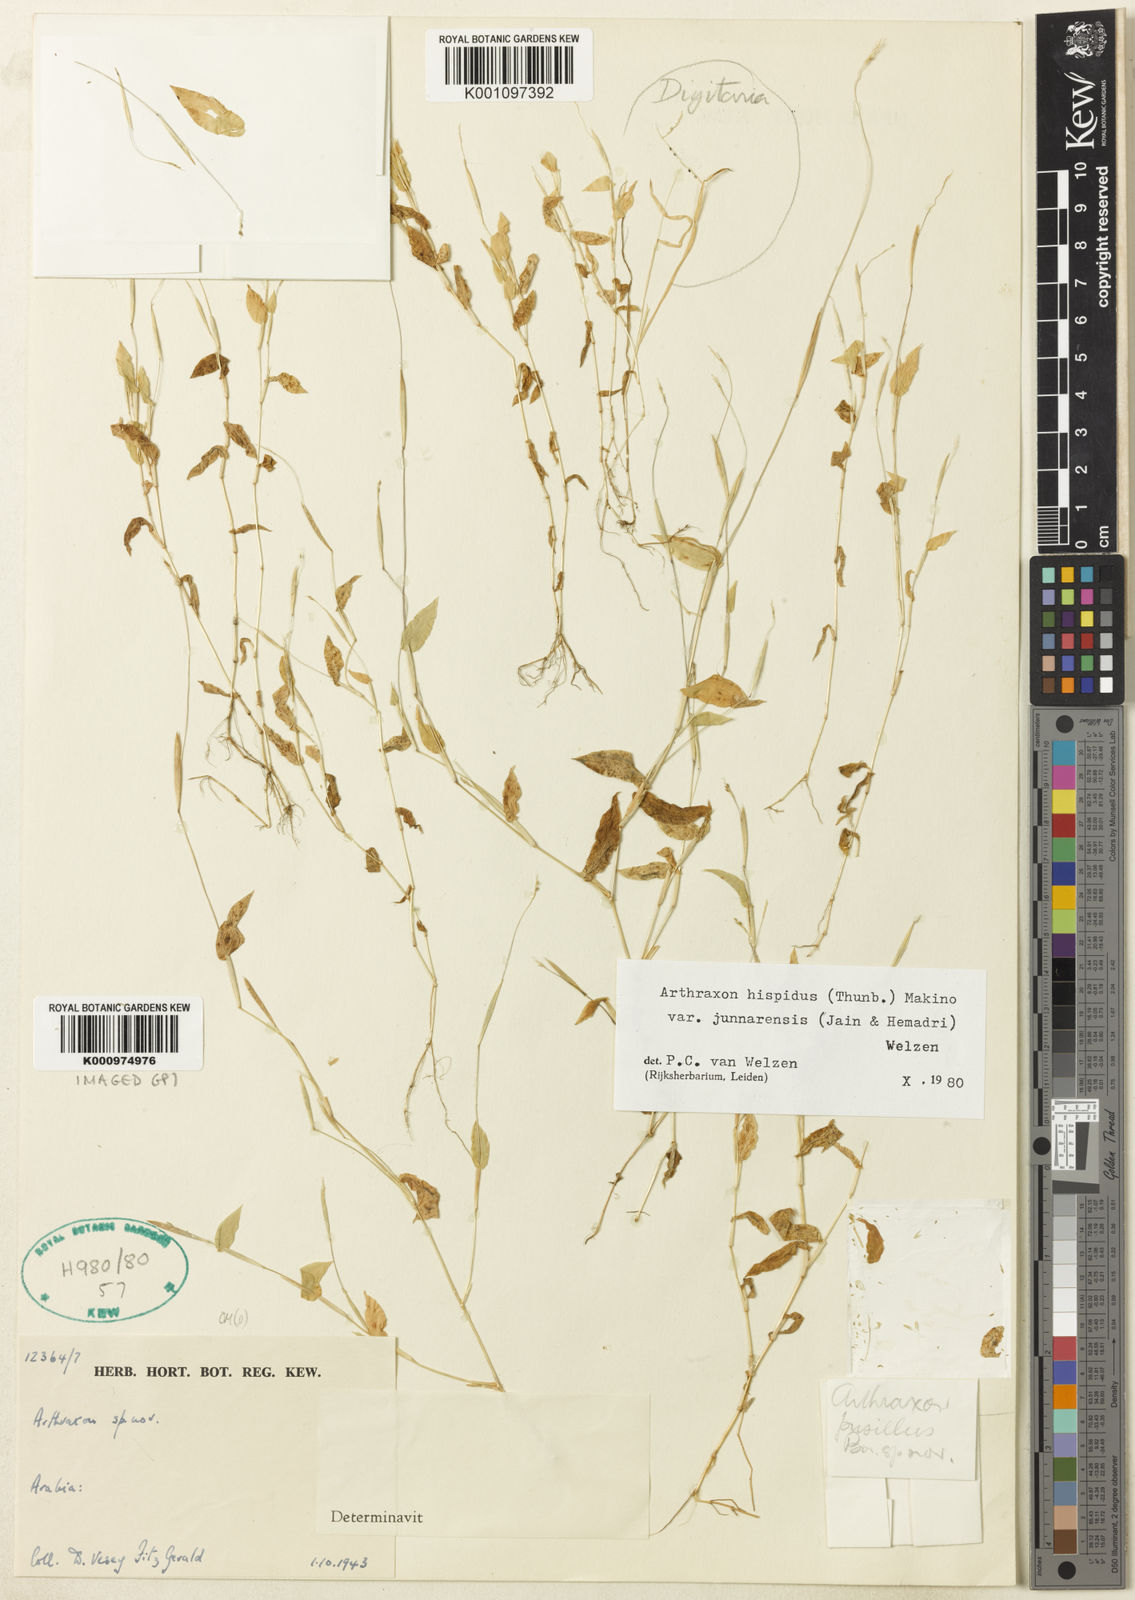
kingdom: Plantae
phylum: Tracheophyta
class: Liliopsida
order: Poales
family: Poaceae
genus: Arthraxon
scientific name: Arthraxon junnarensis
